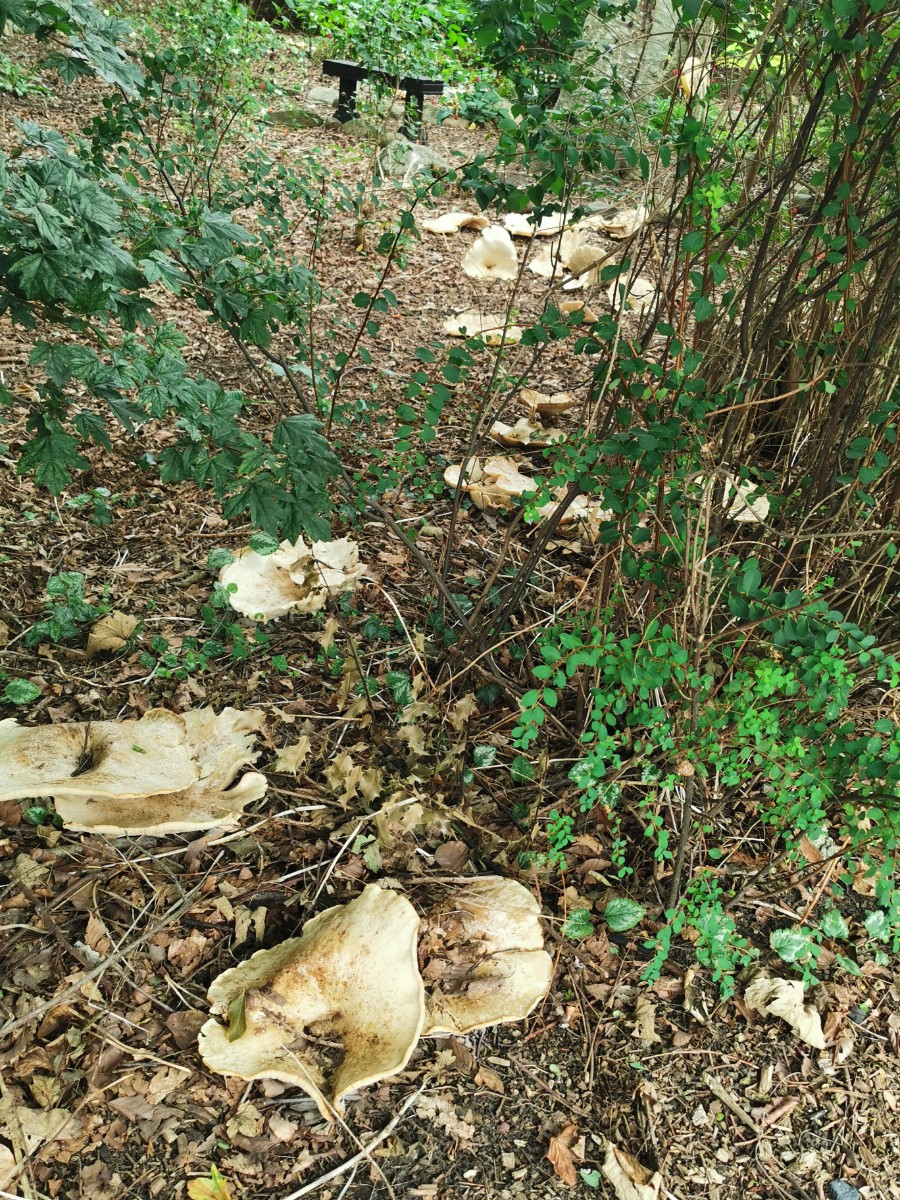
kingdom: Fungi
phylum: Basidiomycota
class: Agaricomycetes
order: Agaricales
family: Tricholomataceae
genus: Aspropaxillus
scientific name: Aspropaxillus giganteus
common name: kæmpe-tragtridderhat
